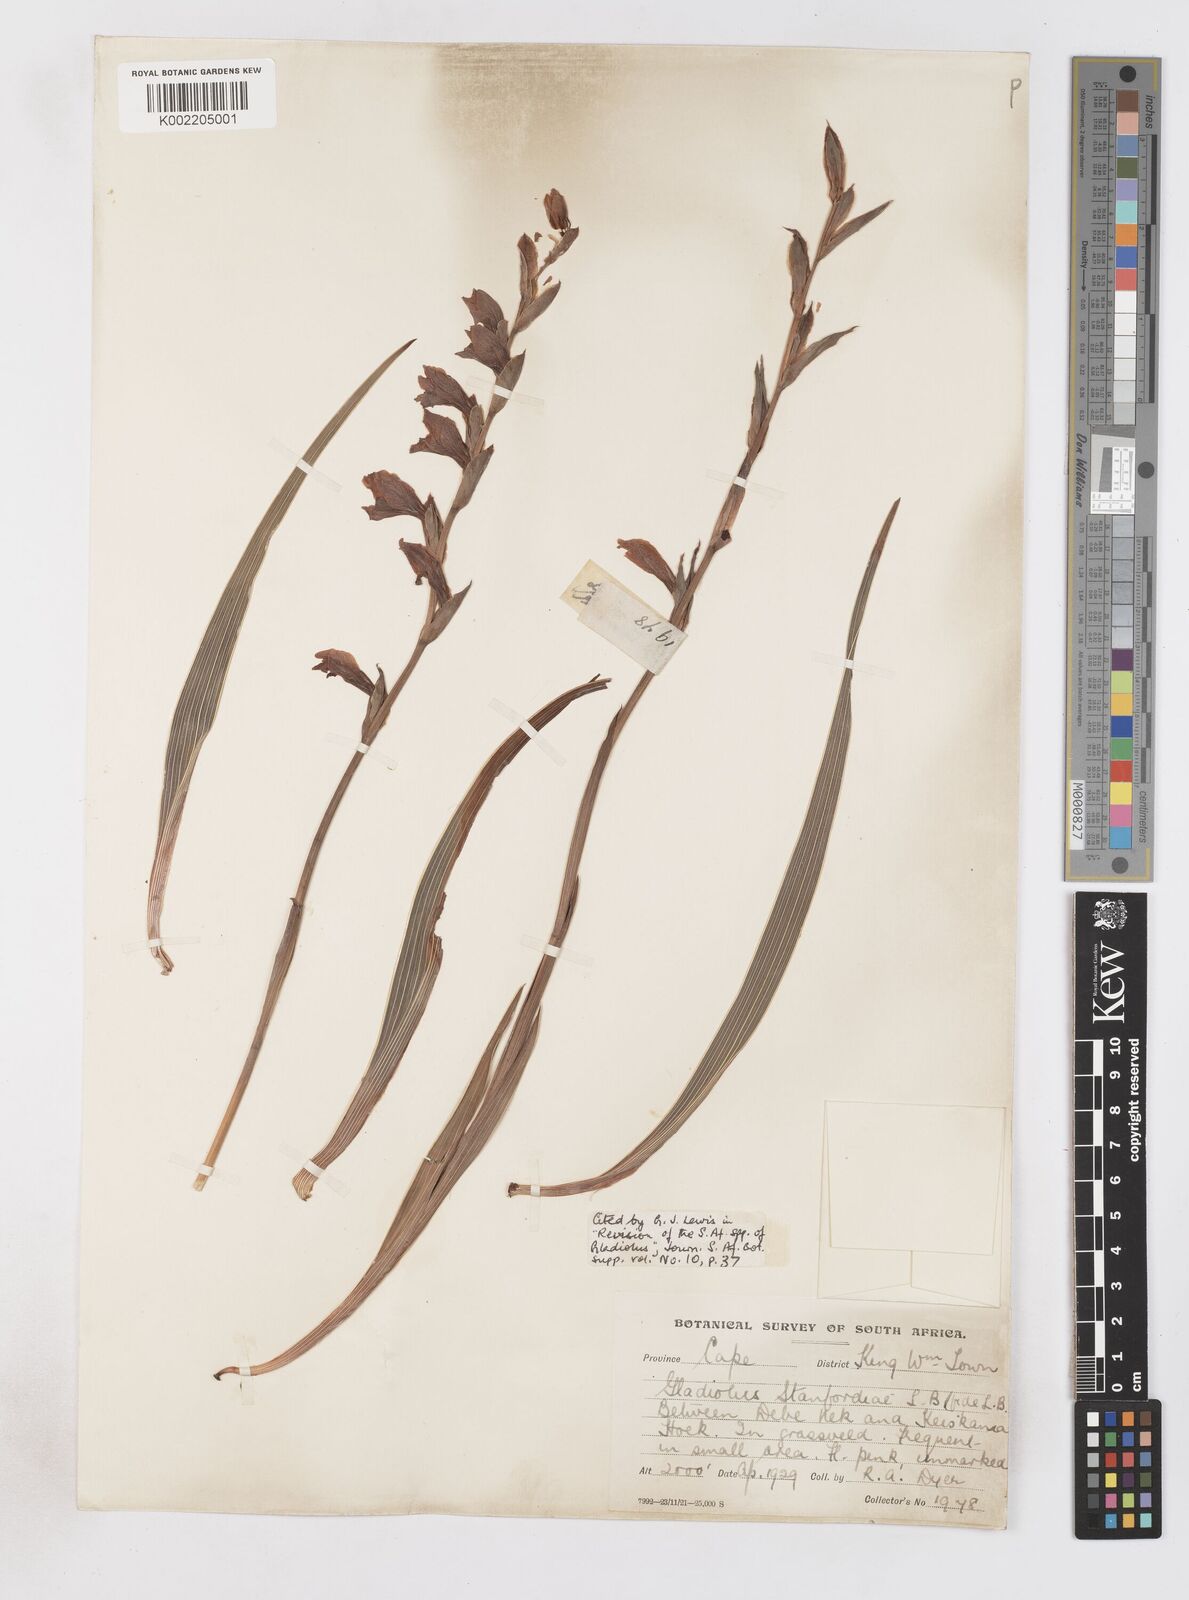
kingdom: Plantae
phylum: Tracheophyta
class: Liliopsida
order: Asparagales
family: Iridaceae
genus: Gladiolus
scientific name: Gladiolus ochroleucus
